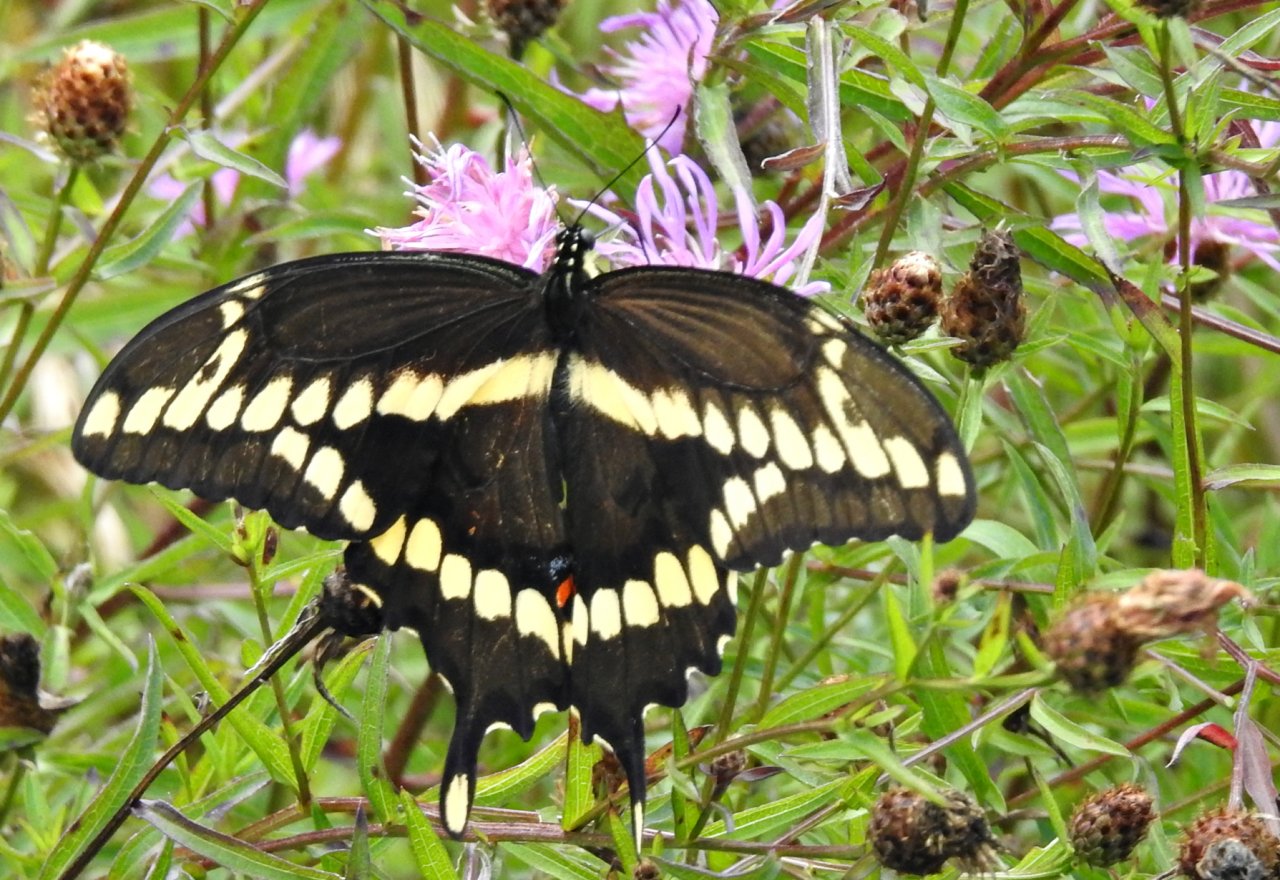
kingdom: Animalia
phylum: Arthropoda
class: Insecta
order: Lepidoptera
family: Papilionidae
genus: Papilio
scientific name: Papilio cresphontes
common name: Eastern Giant Swallowtail
